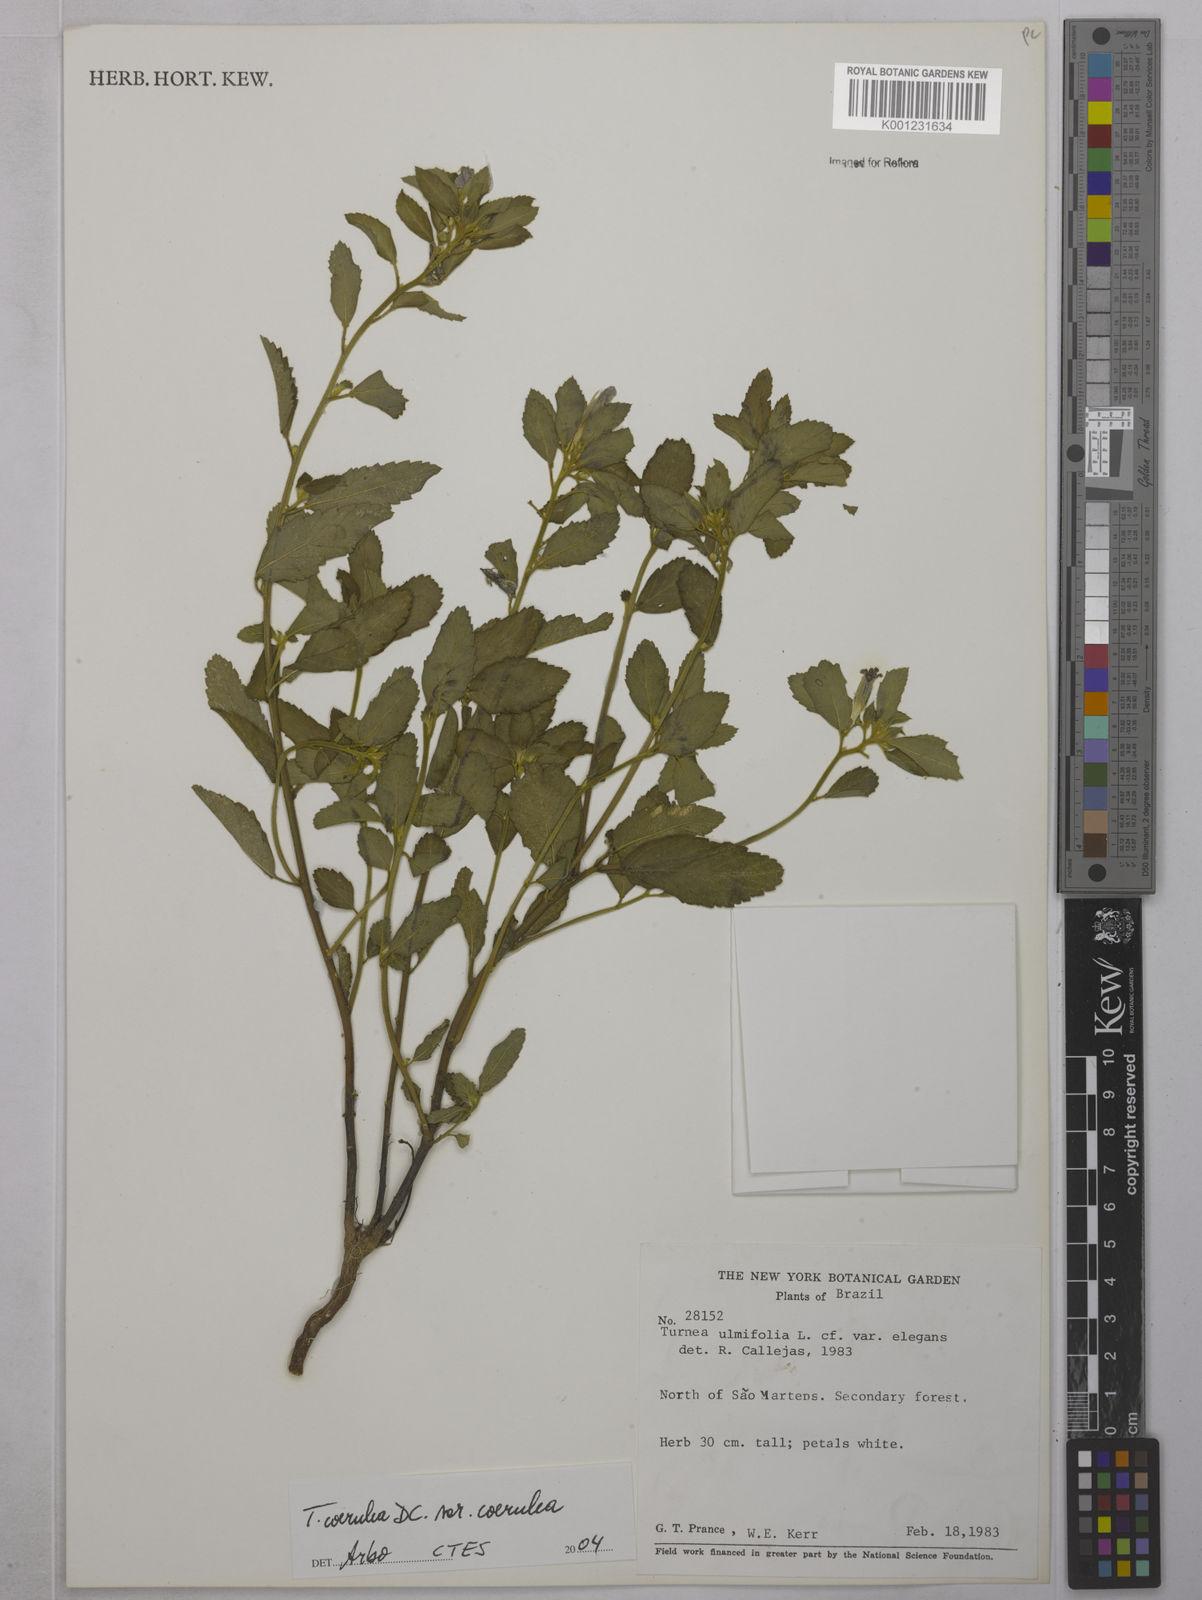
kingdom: Plantae
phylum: Tracheophyta
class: Magnoliopsida
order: Malpighiales
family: Turneraceae
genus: Turnera
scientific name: Turnera subulata
